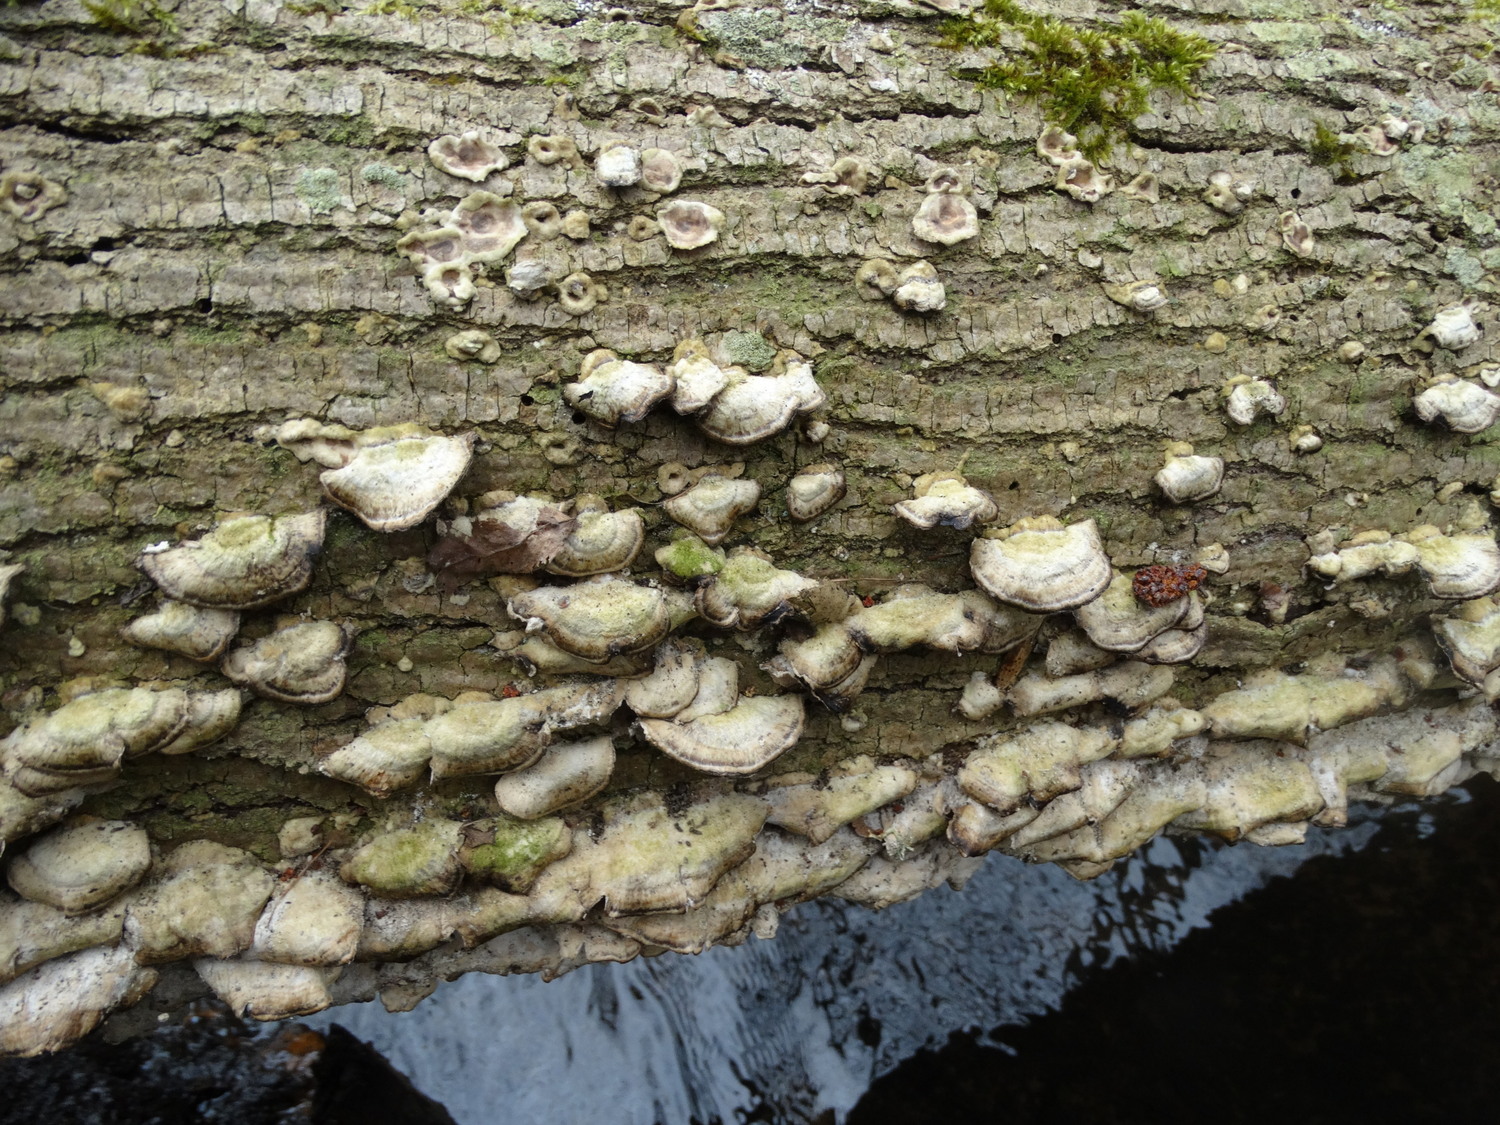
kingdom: Fungi
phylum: Basidiomycota
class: Agaricomycetes
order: Polyporales
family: Phanerochaetaceae
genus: Bjerkandera
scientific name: Bjerkandera adusta
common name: sveden sodporesvamp
